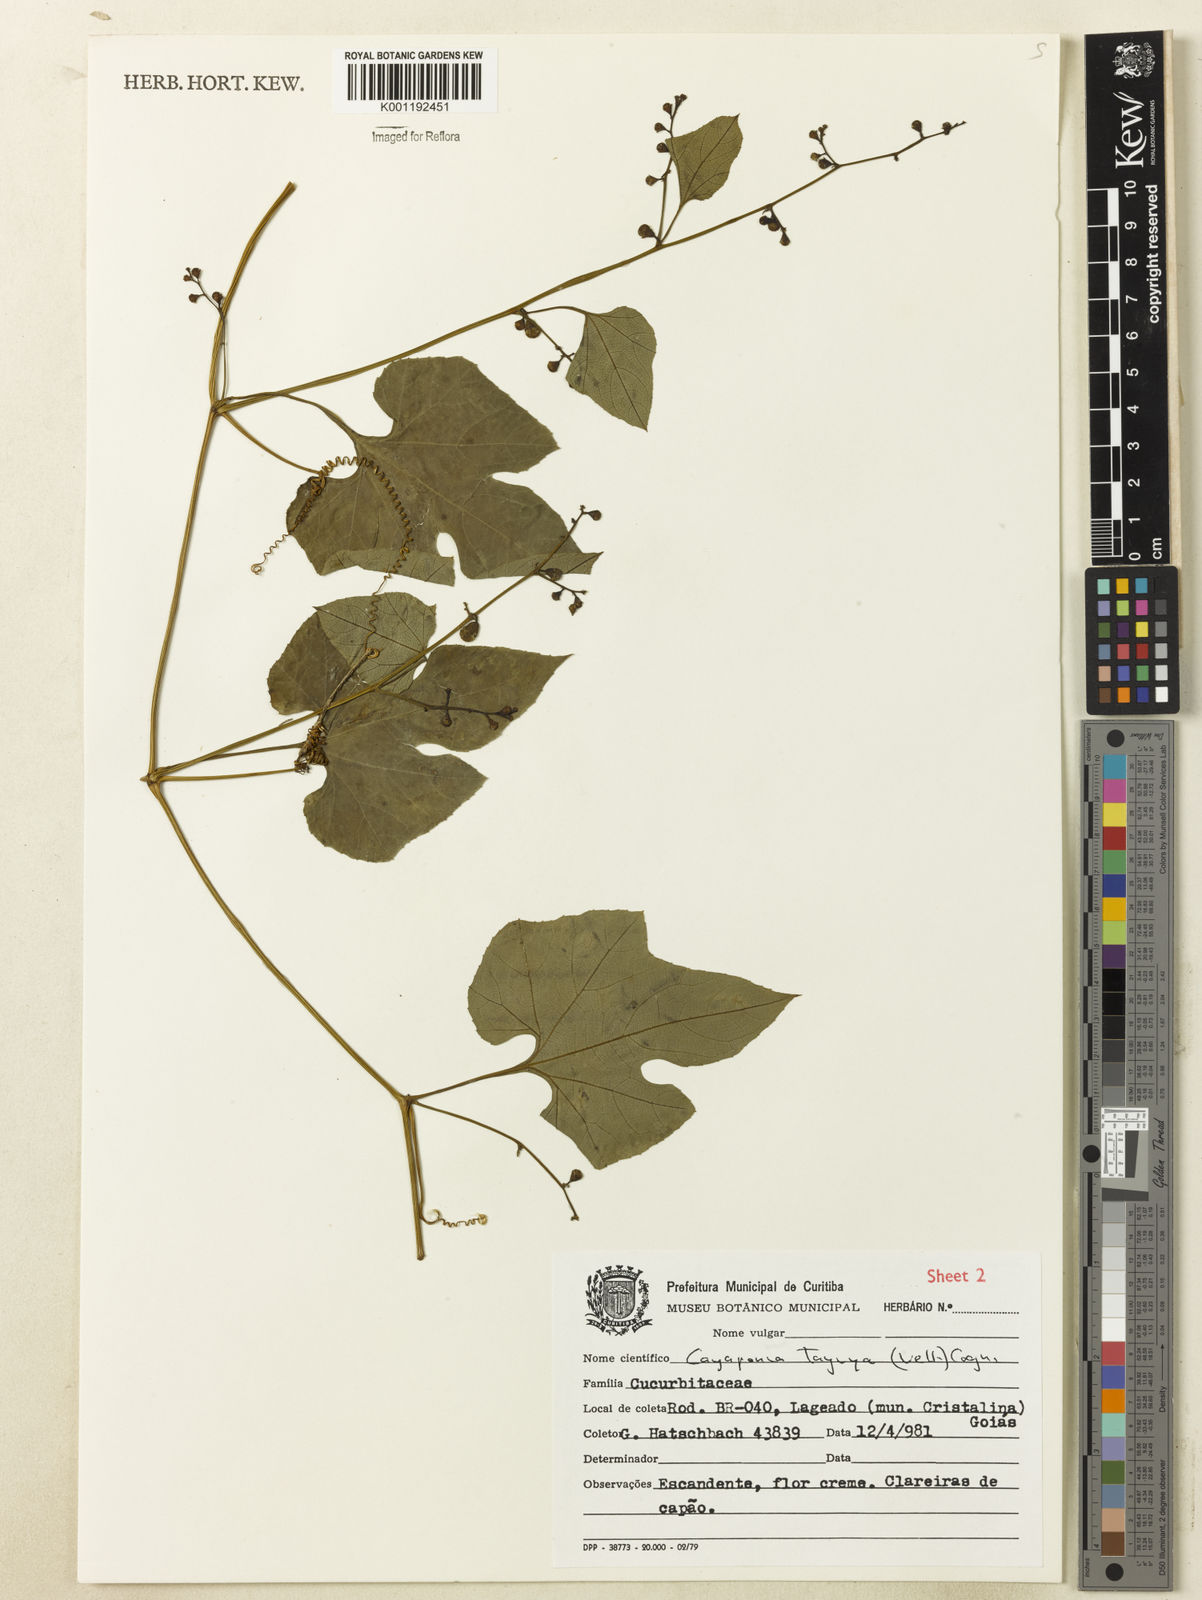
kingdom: Plantae
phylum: Tracheophyta
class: Magnoliopsida
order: Cucurbitales
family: Cucurbitaceae
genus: Cayaponia
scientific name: Cayaponia tayuya
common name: Tayuya
